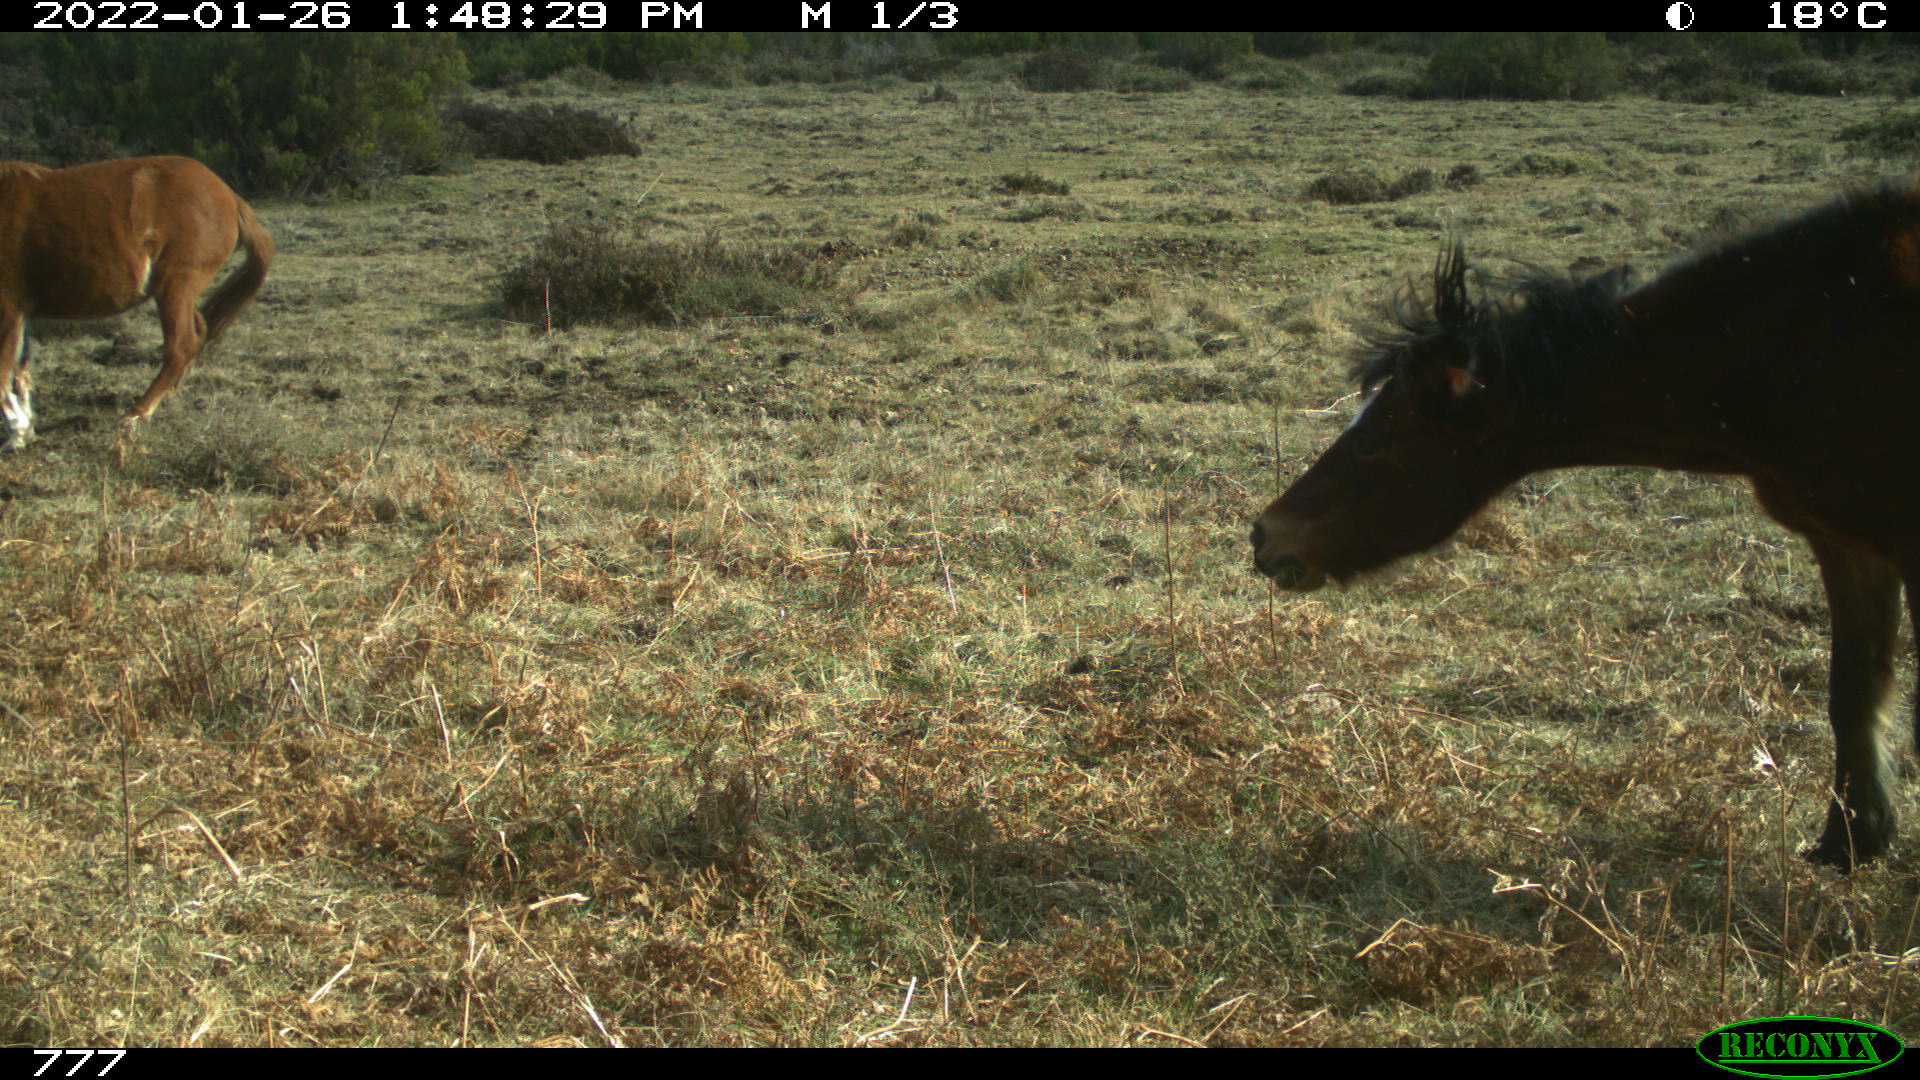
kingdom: Animalia
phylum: Chordata
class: Mammalia
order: Perissodactyla
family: Equidae
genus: Equus
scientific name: Equus caballus
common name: Horse
